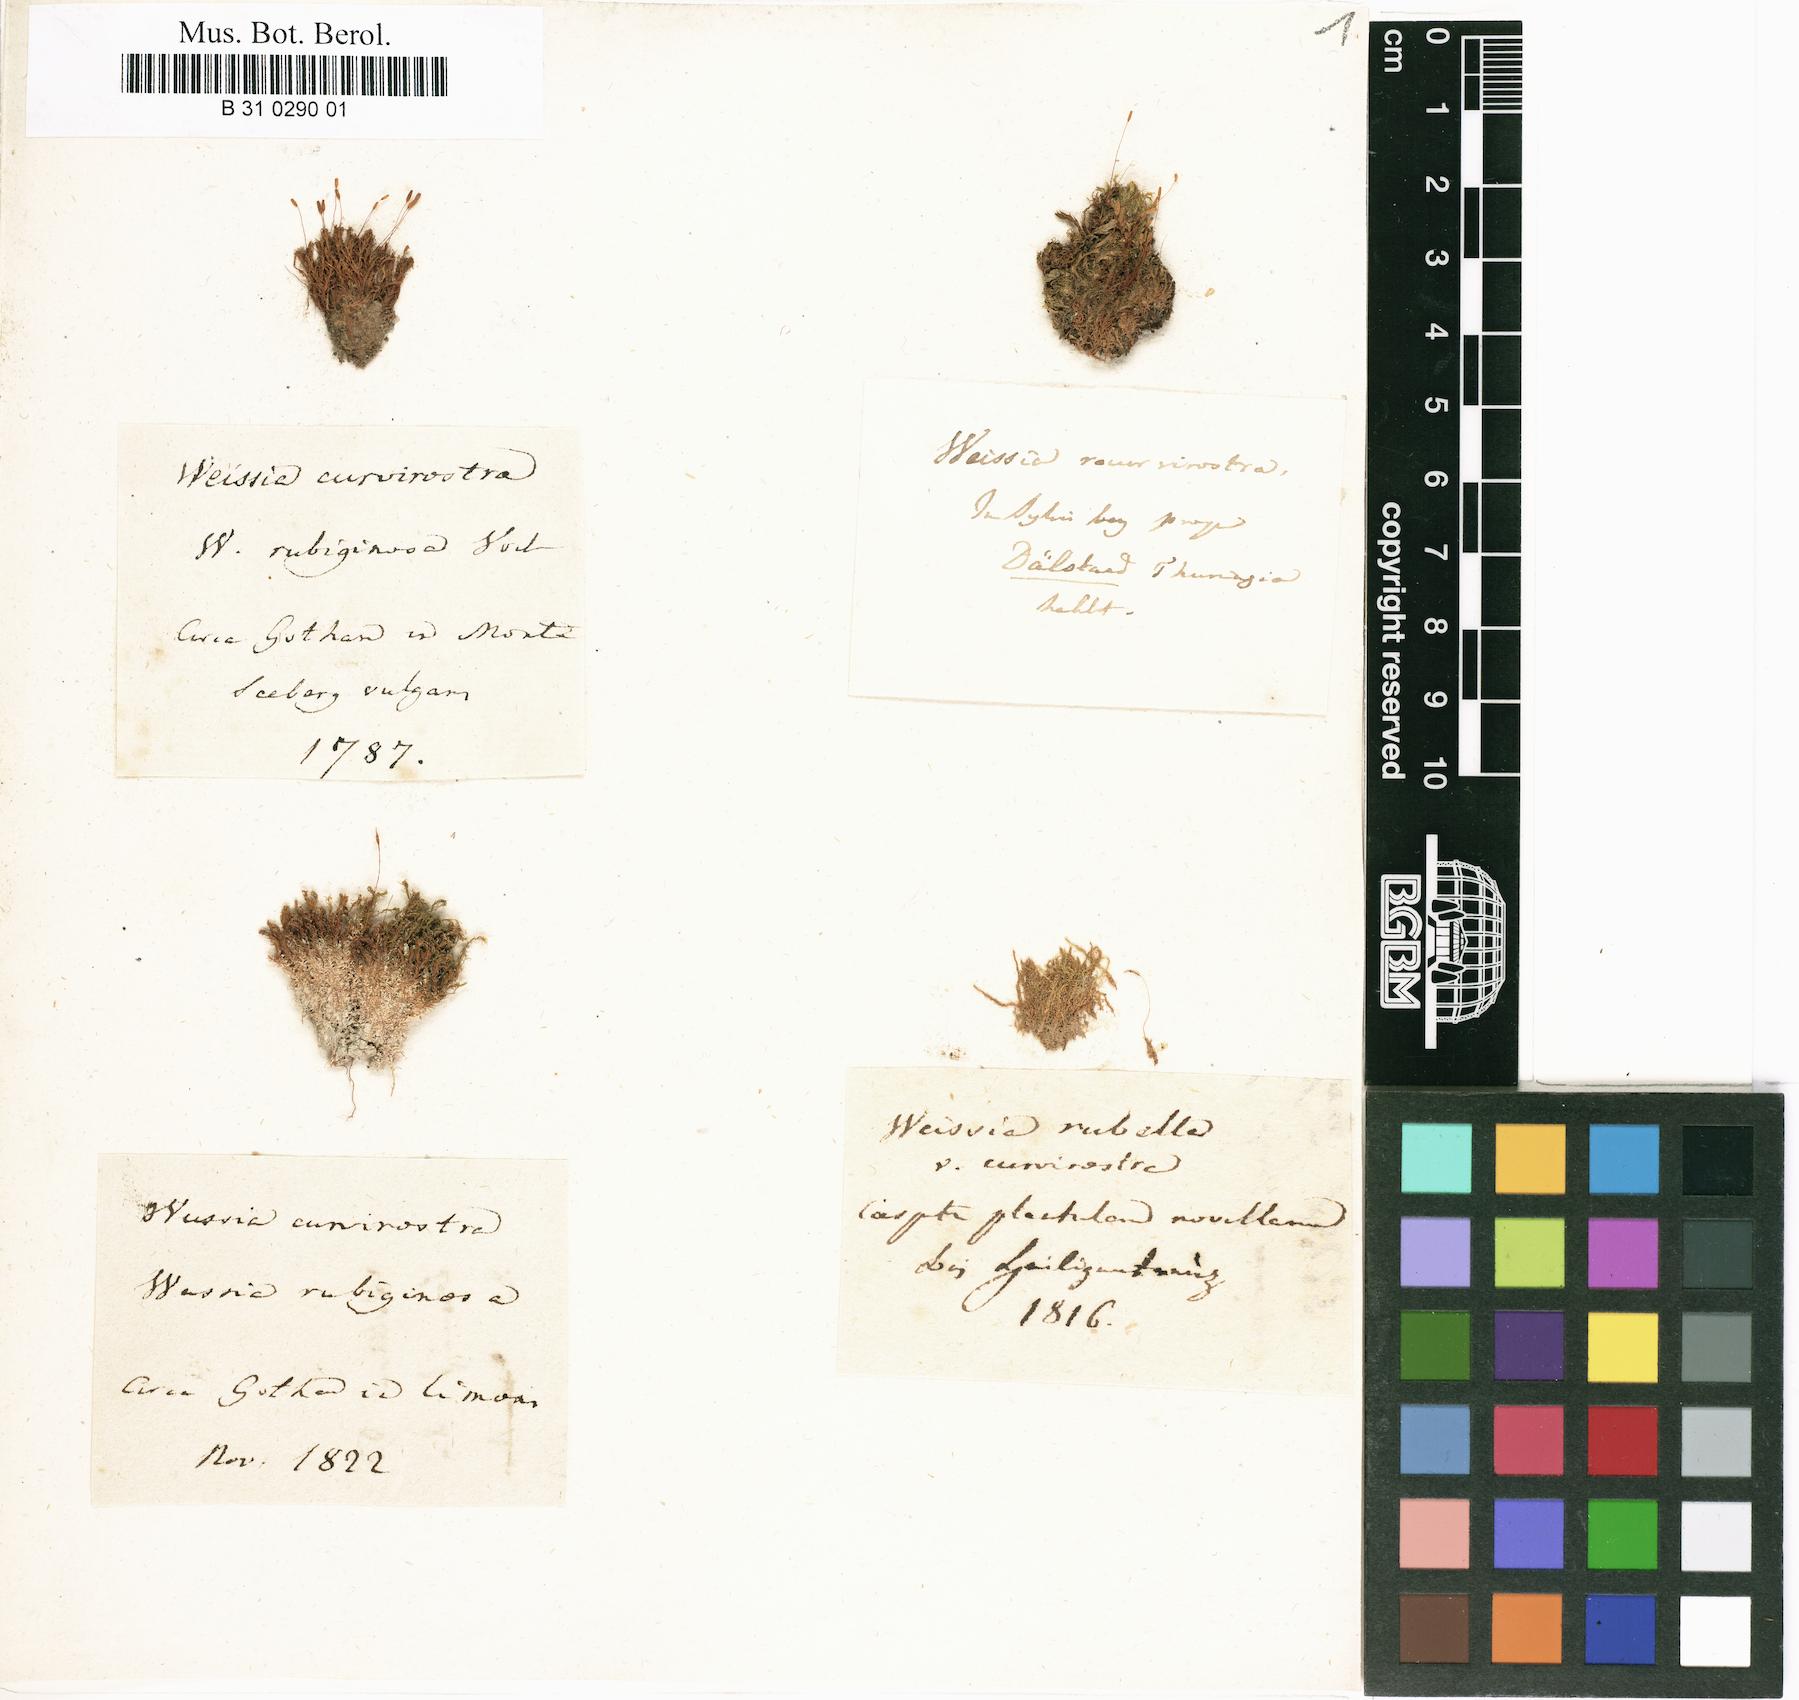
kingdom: Plantae
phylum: Bryophyta
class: Bryopsida
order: Pottiales
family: Pottiaceae
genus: Bryoerythrophyllum
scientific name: Bryoerythrophyllum recurvirostrum
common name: Red beard moss
